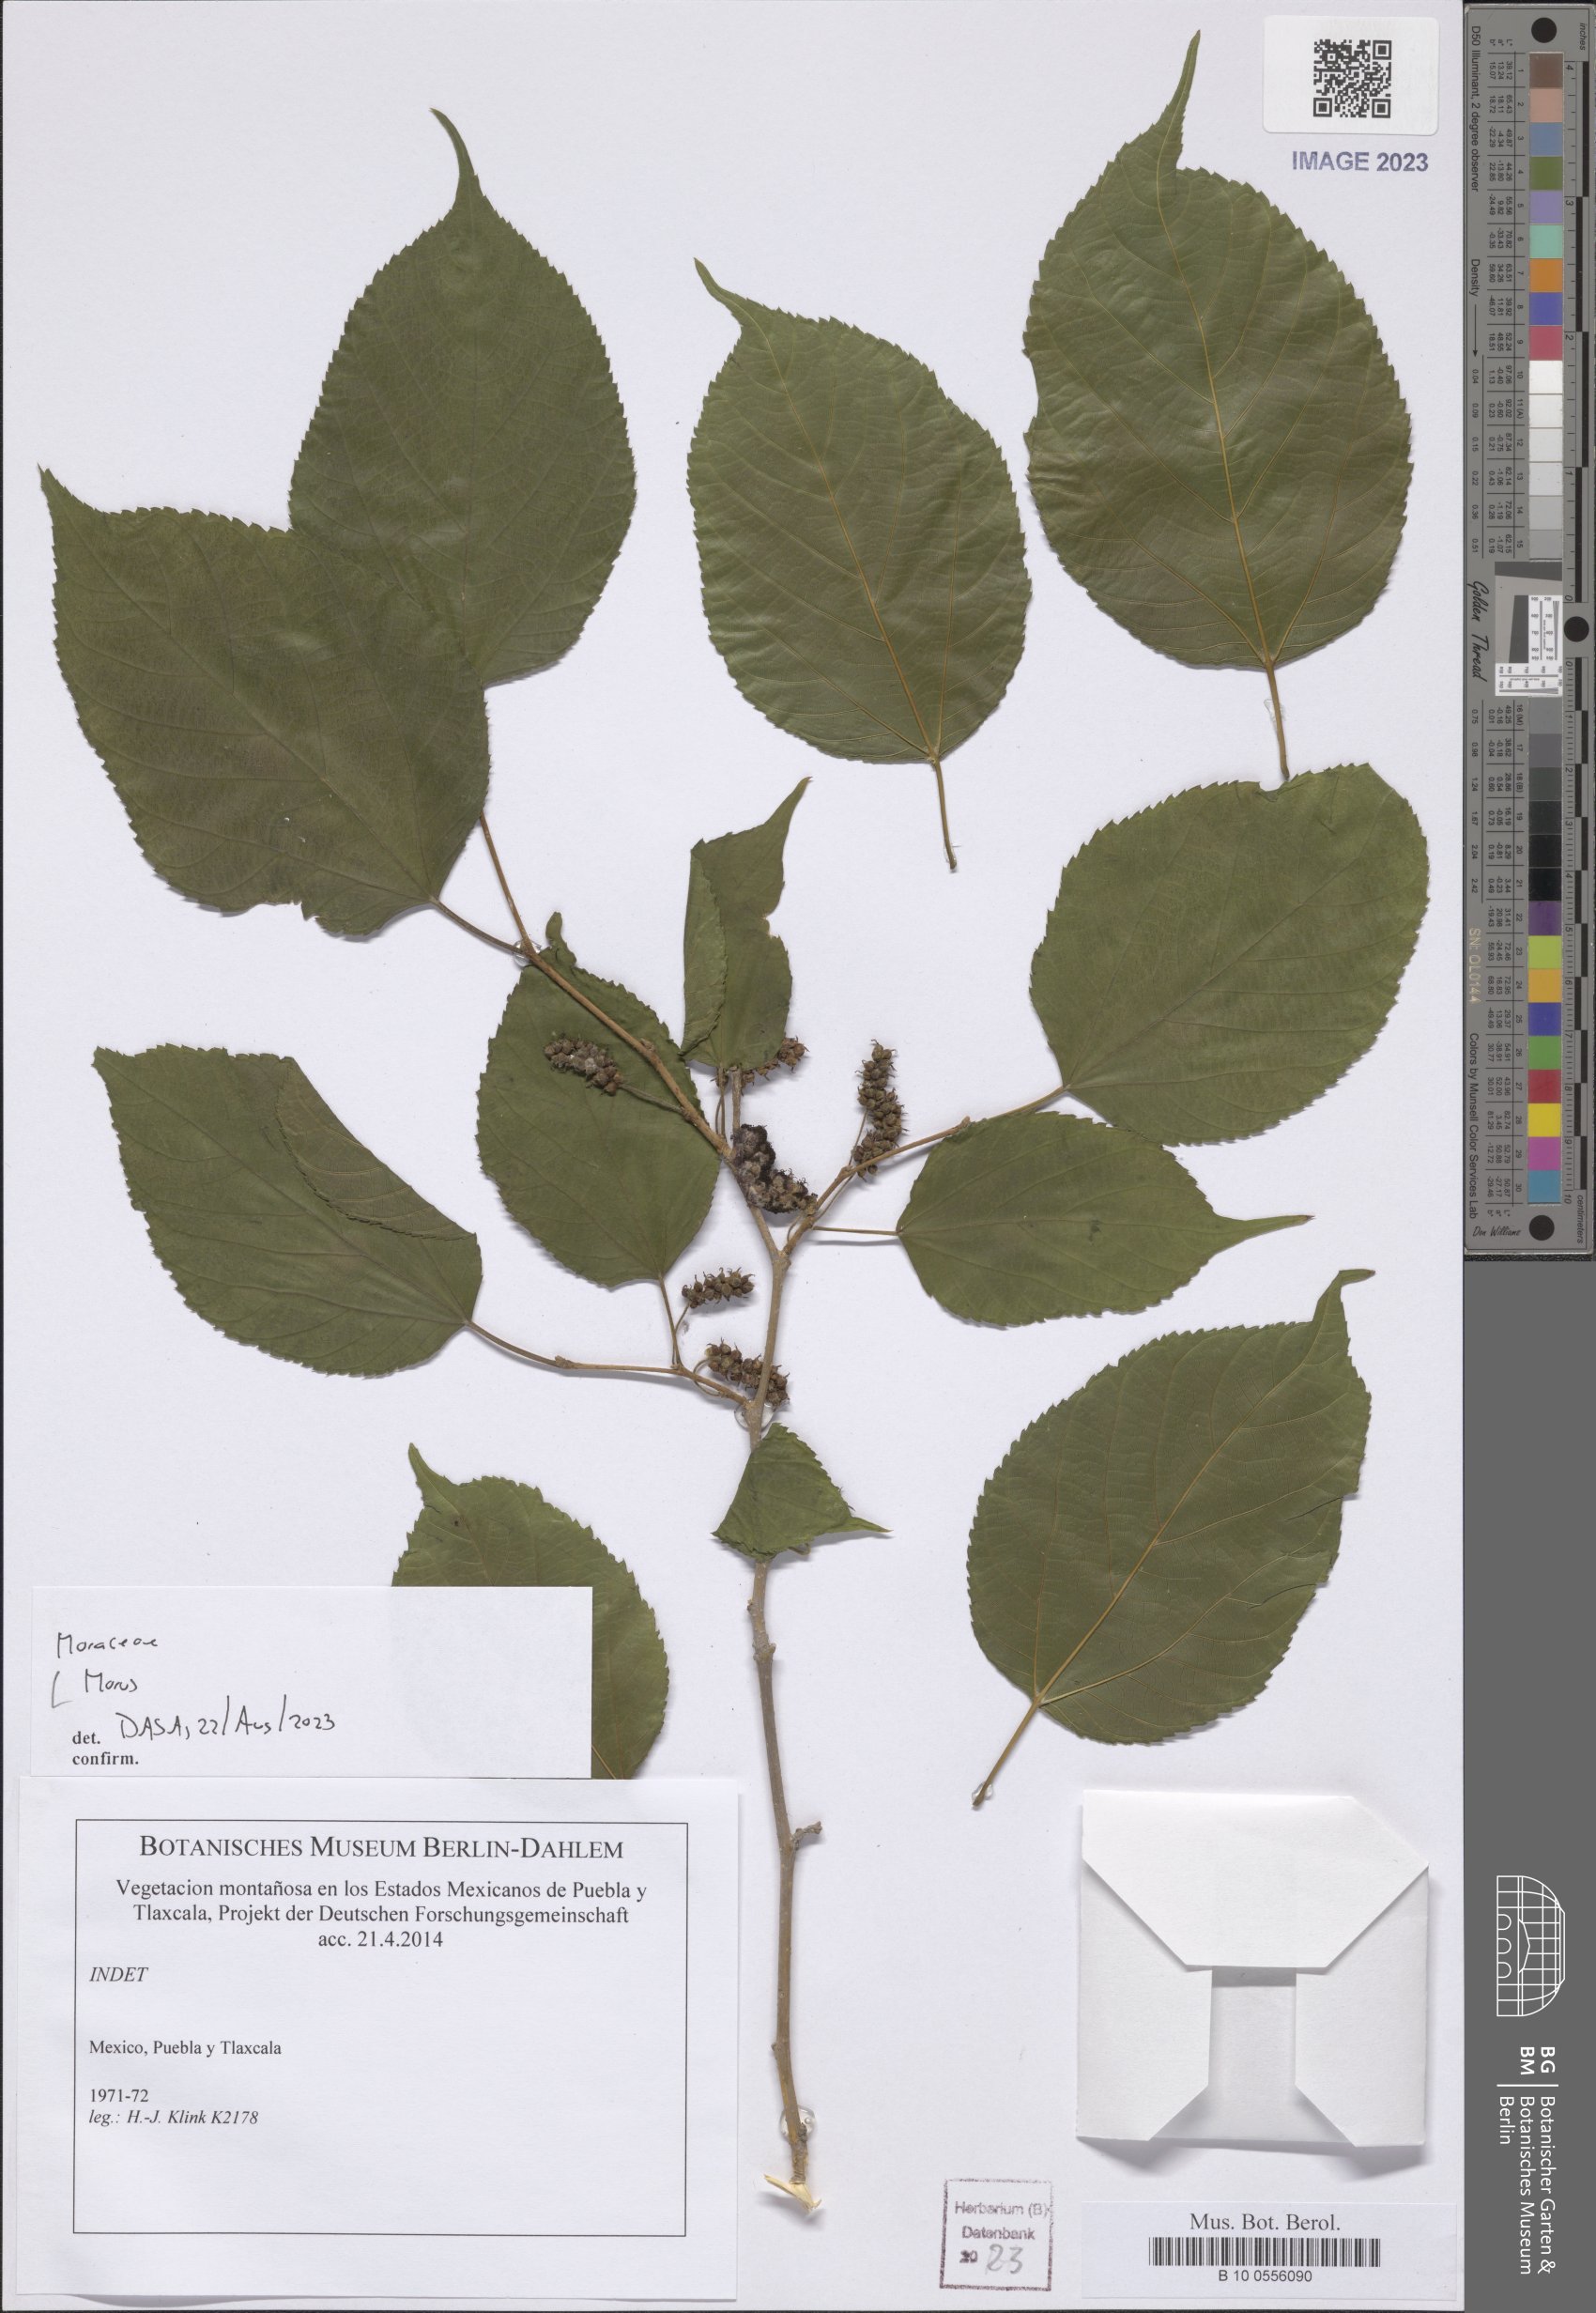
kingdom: Plantae
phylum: Tracheophyta
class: Magnoliopsida
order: Rosales
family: Moraceae
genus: Morus
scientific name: Morus
